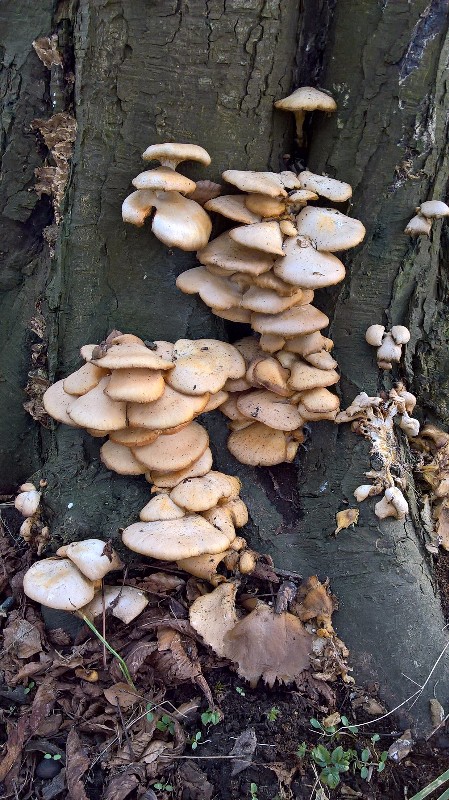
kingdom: Fungi
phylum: Basidiomycota
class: Agaricomycetes
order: Agaricales
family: Pleurotaceae
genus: Pleurotus
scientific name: Pleurotus ostreatus
